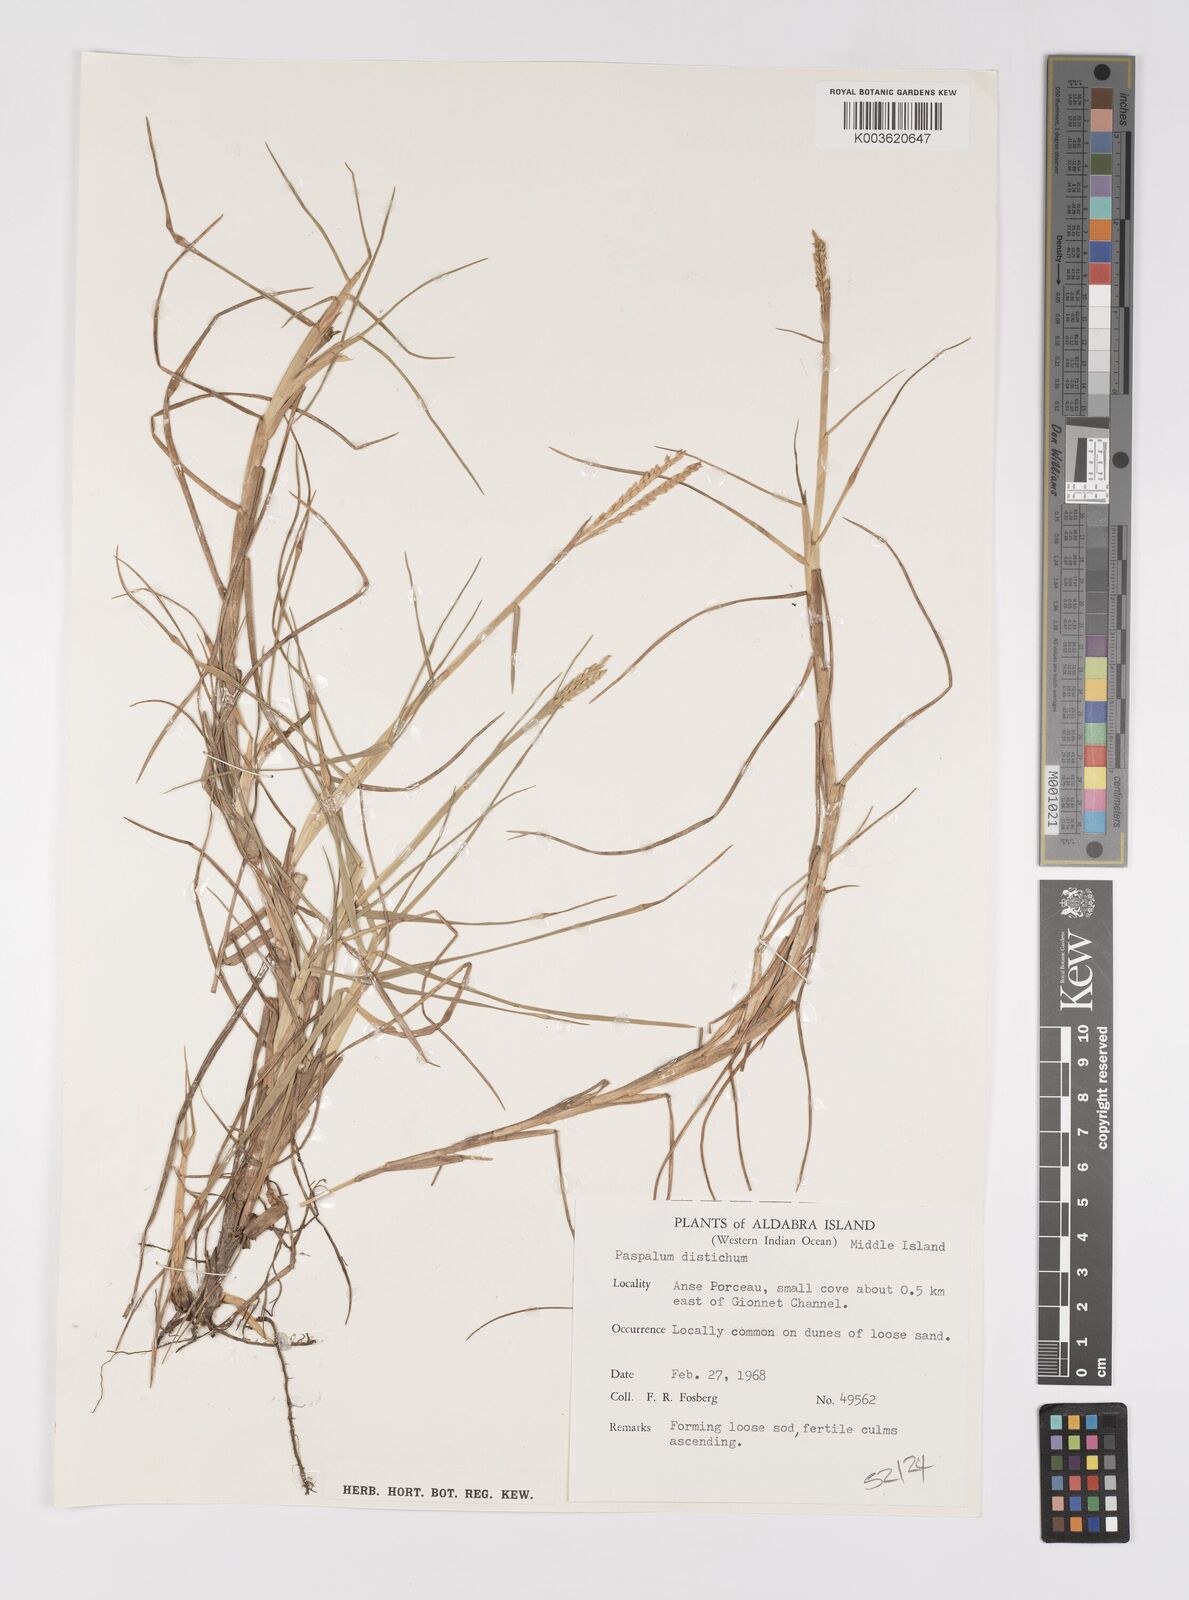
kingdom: Plantae
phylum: Tracheophyta
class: Liliopsida
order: Poales
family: Poaceae
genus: Paspalum
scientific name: Paspalum vaginatum
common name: Seashore paspalum
